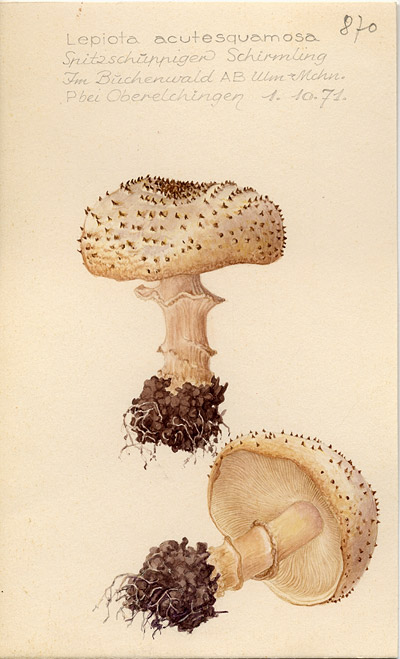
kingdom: Fungi
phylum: Basidiomycota
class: Agaricomycetes
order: Agaricales
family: Agaricaceae
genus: Echinoderma
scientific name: Echinoderma asperum
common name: Freckled dapperling
